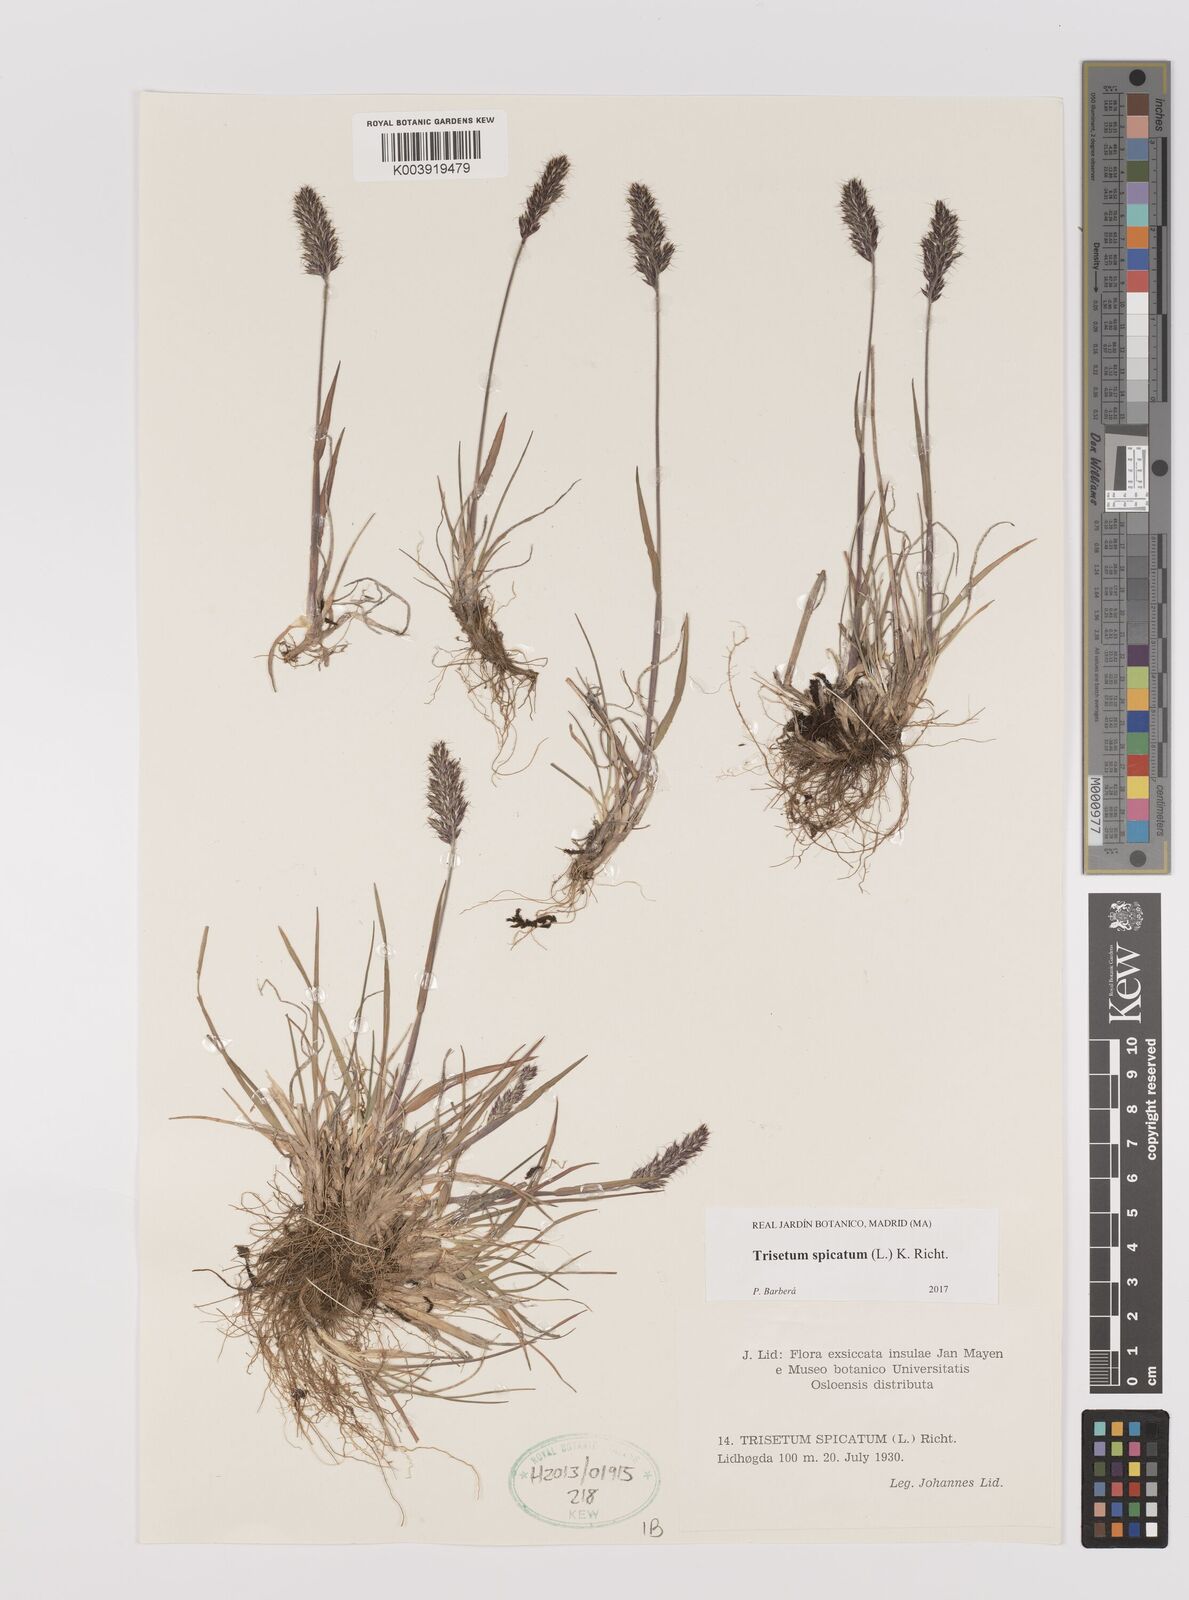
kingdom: Plantae
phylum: Tracheophyta
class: Liliopsida
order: Poales
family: Poaceae
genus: Koeleria
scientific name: Koeleria spicata
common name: Mountain trisetum
